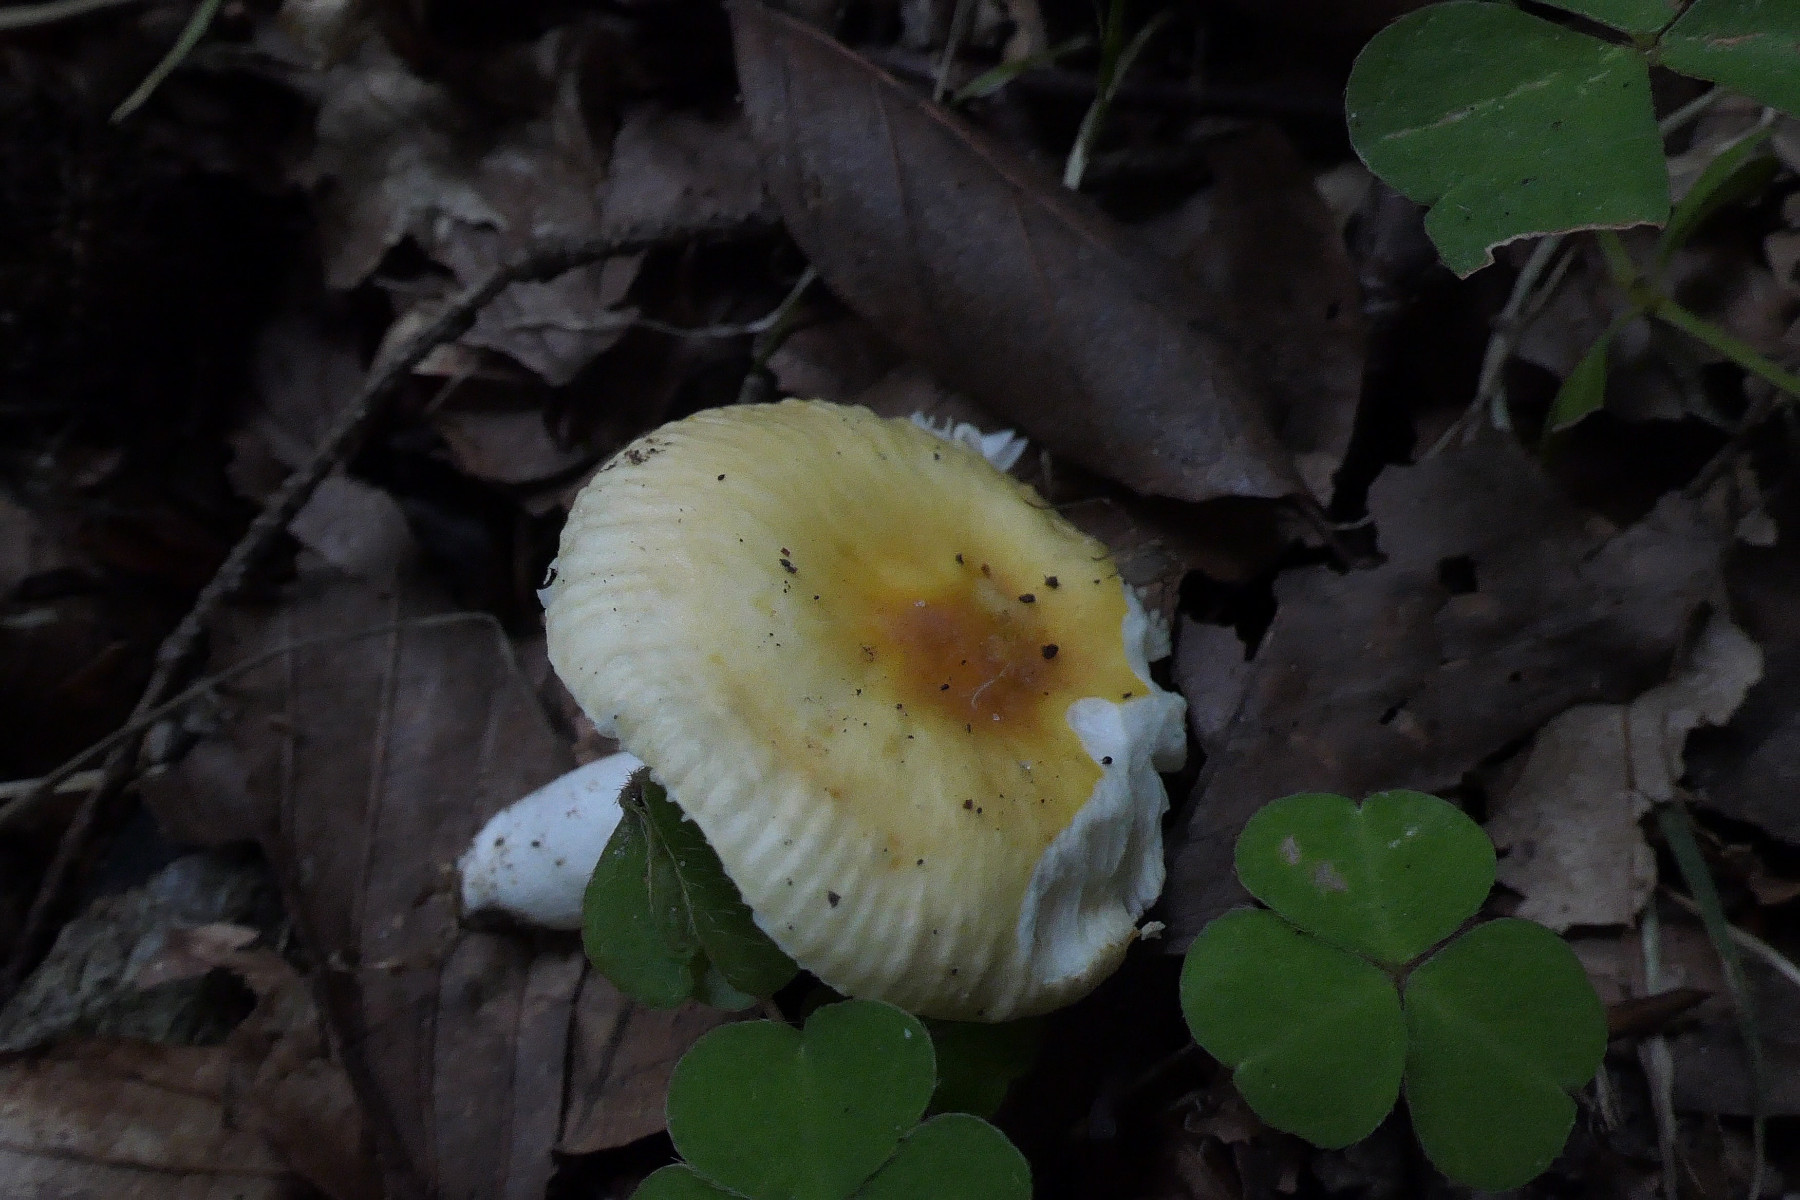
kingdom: Fungi
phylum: Basidiomycota
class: Agaricomycetes
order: Russulales
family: Russulaceae
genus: Russula
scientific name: Russula solaris
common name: sol-skørhat
